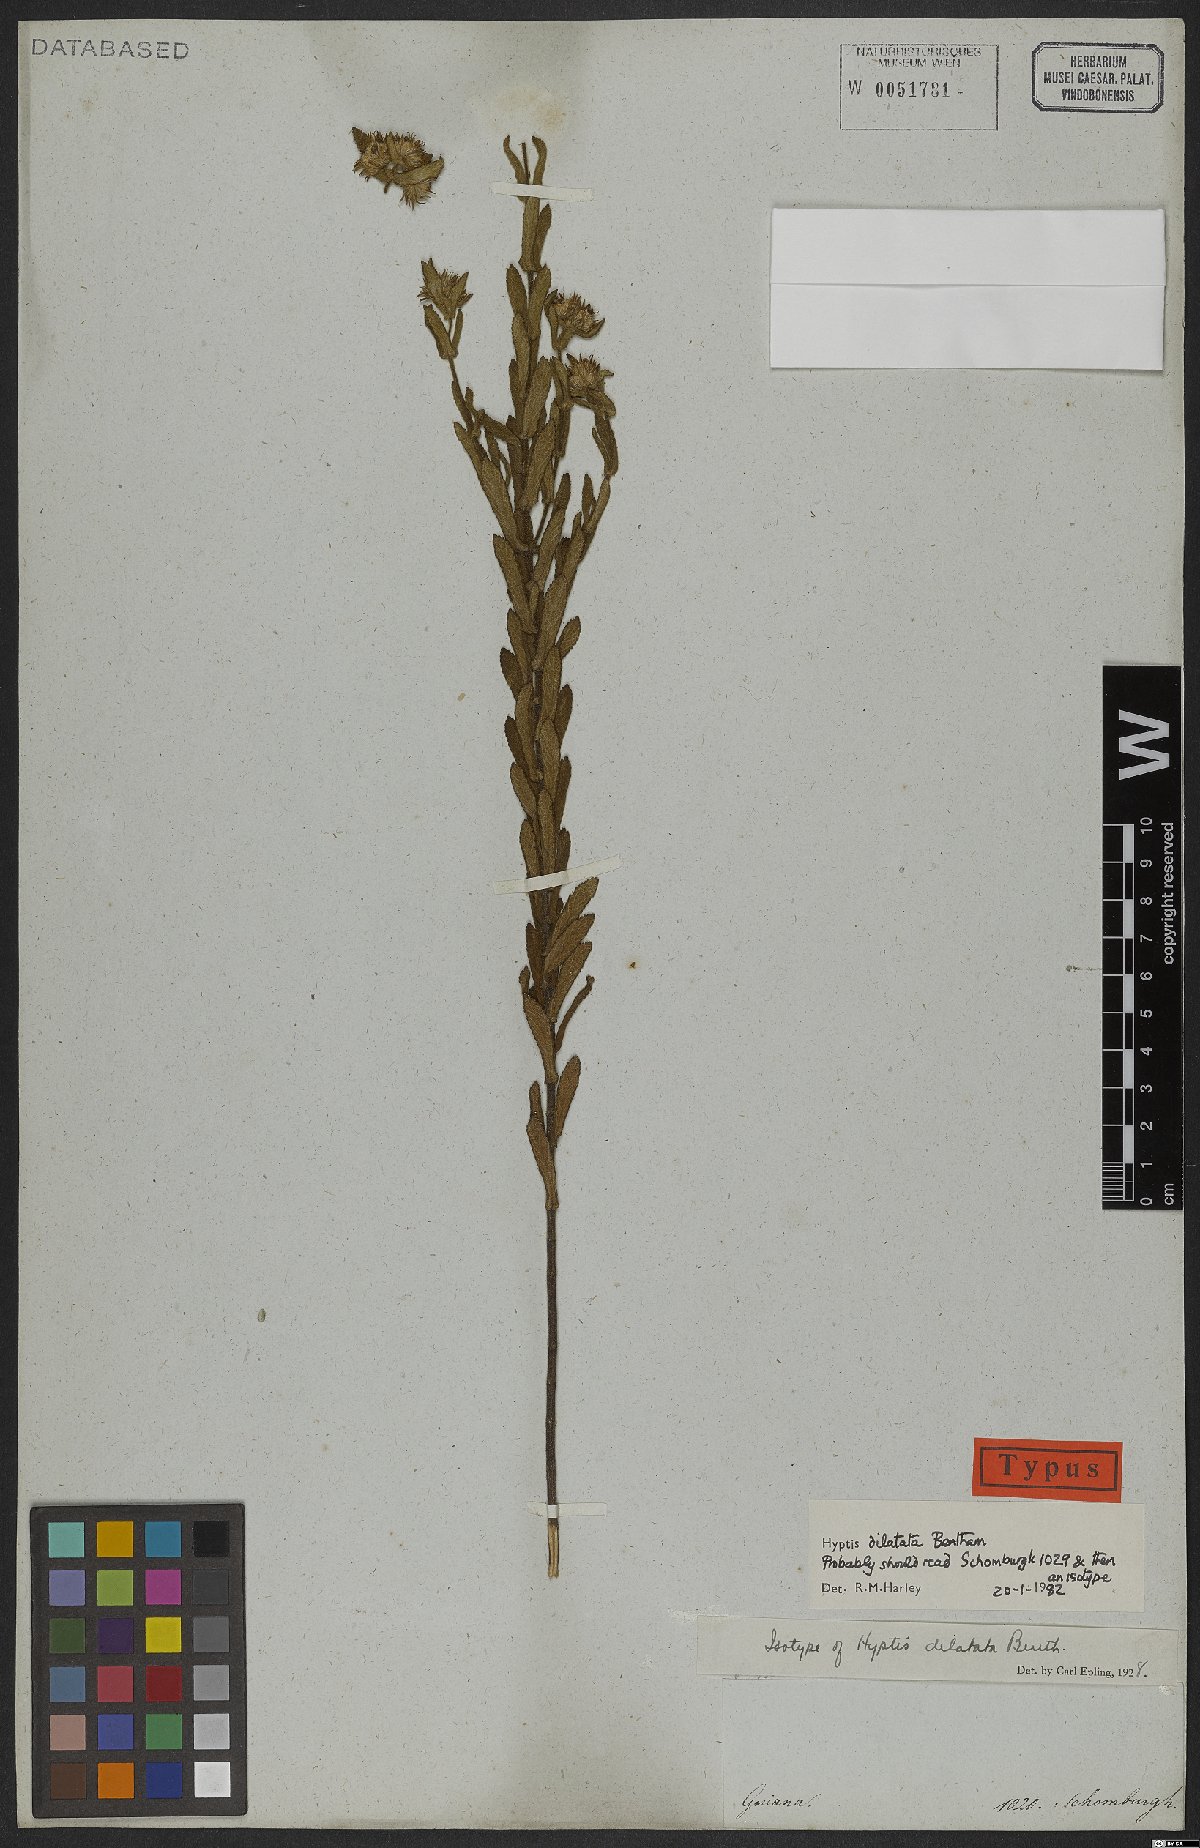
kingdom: Plantae
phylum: Tracheophyta
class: Magnoliopsida
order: Lamiales
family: Lamiaceae
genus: Hyptis
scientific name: Hyptis dilatata
